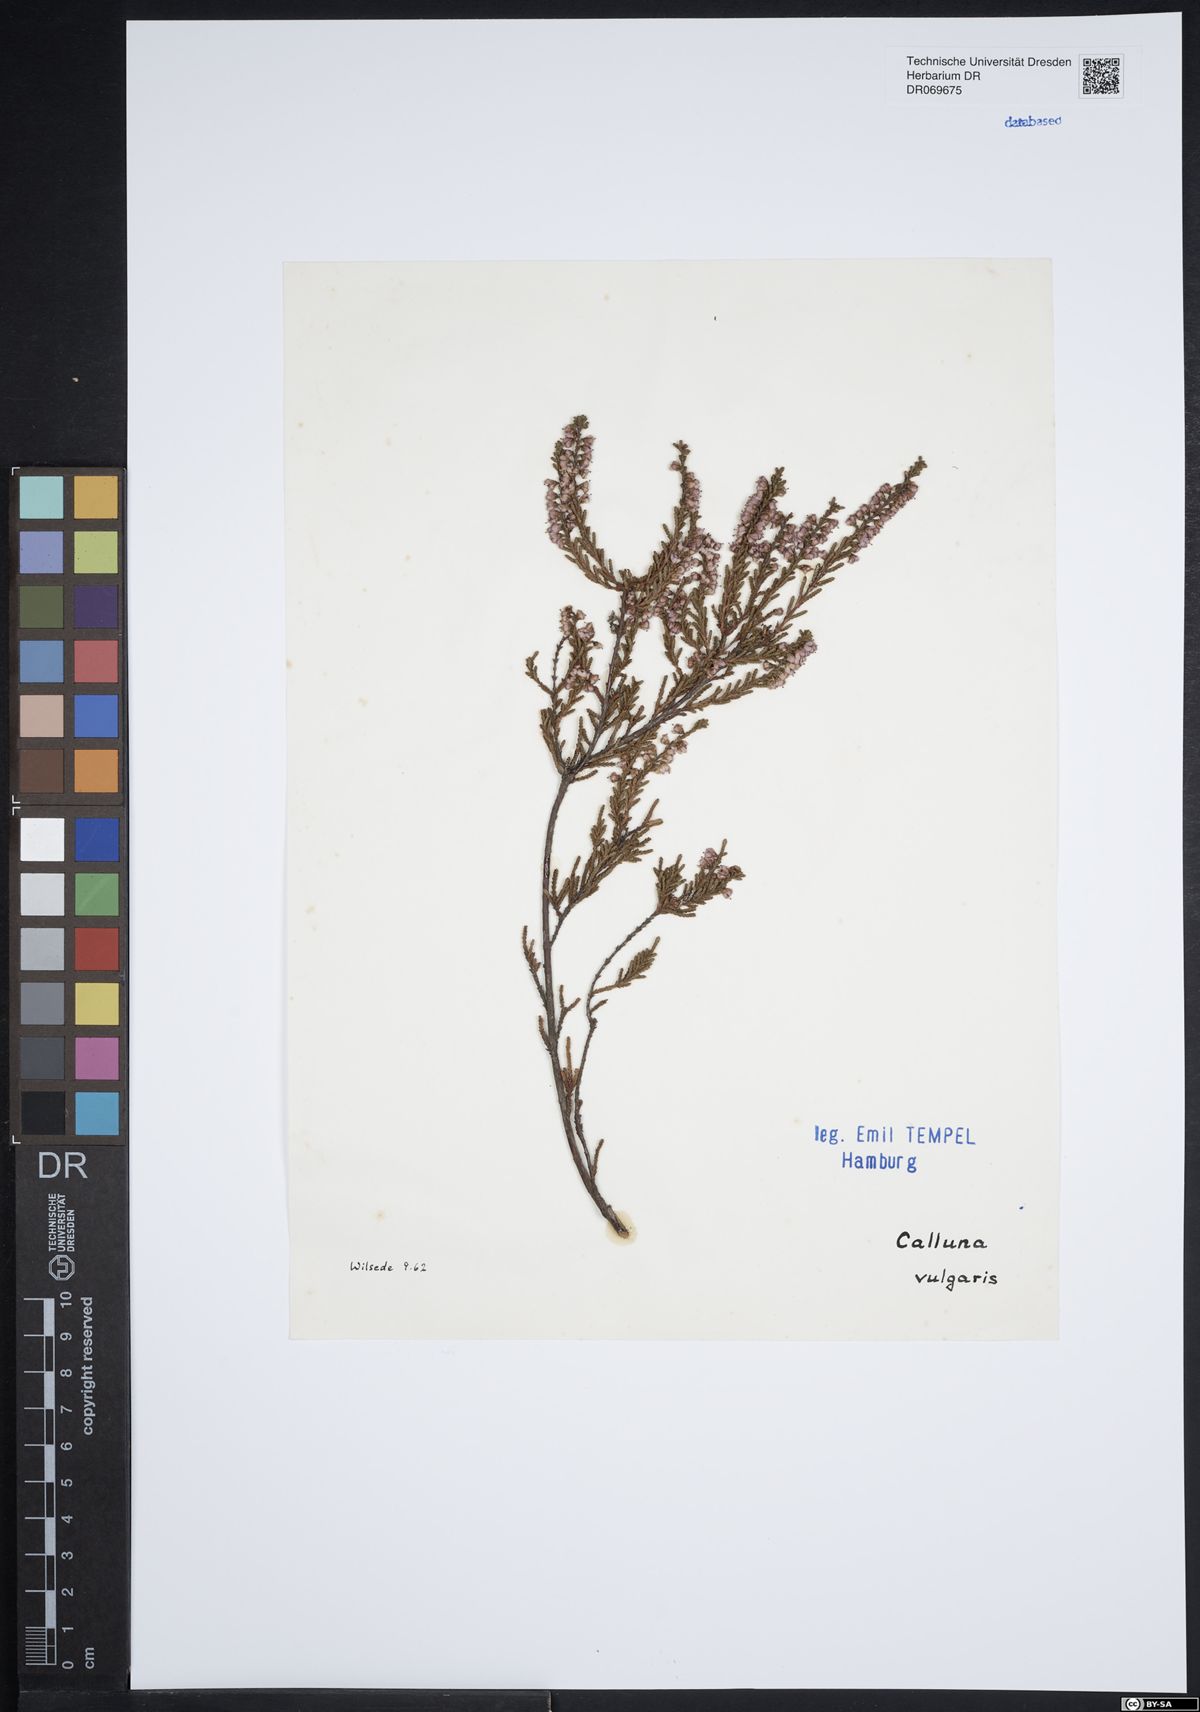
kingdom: Plantae
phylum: Tracheophyta
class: Magnoliopsida
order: Ericales
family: Ericaceae
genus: Calluna
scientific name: Calluna vulgaris
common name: Heather
